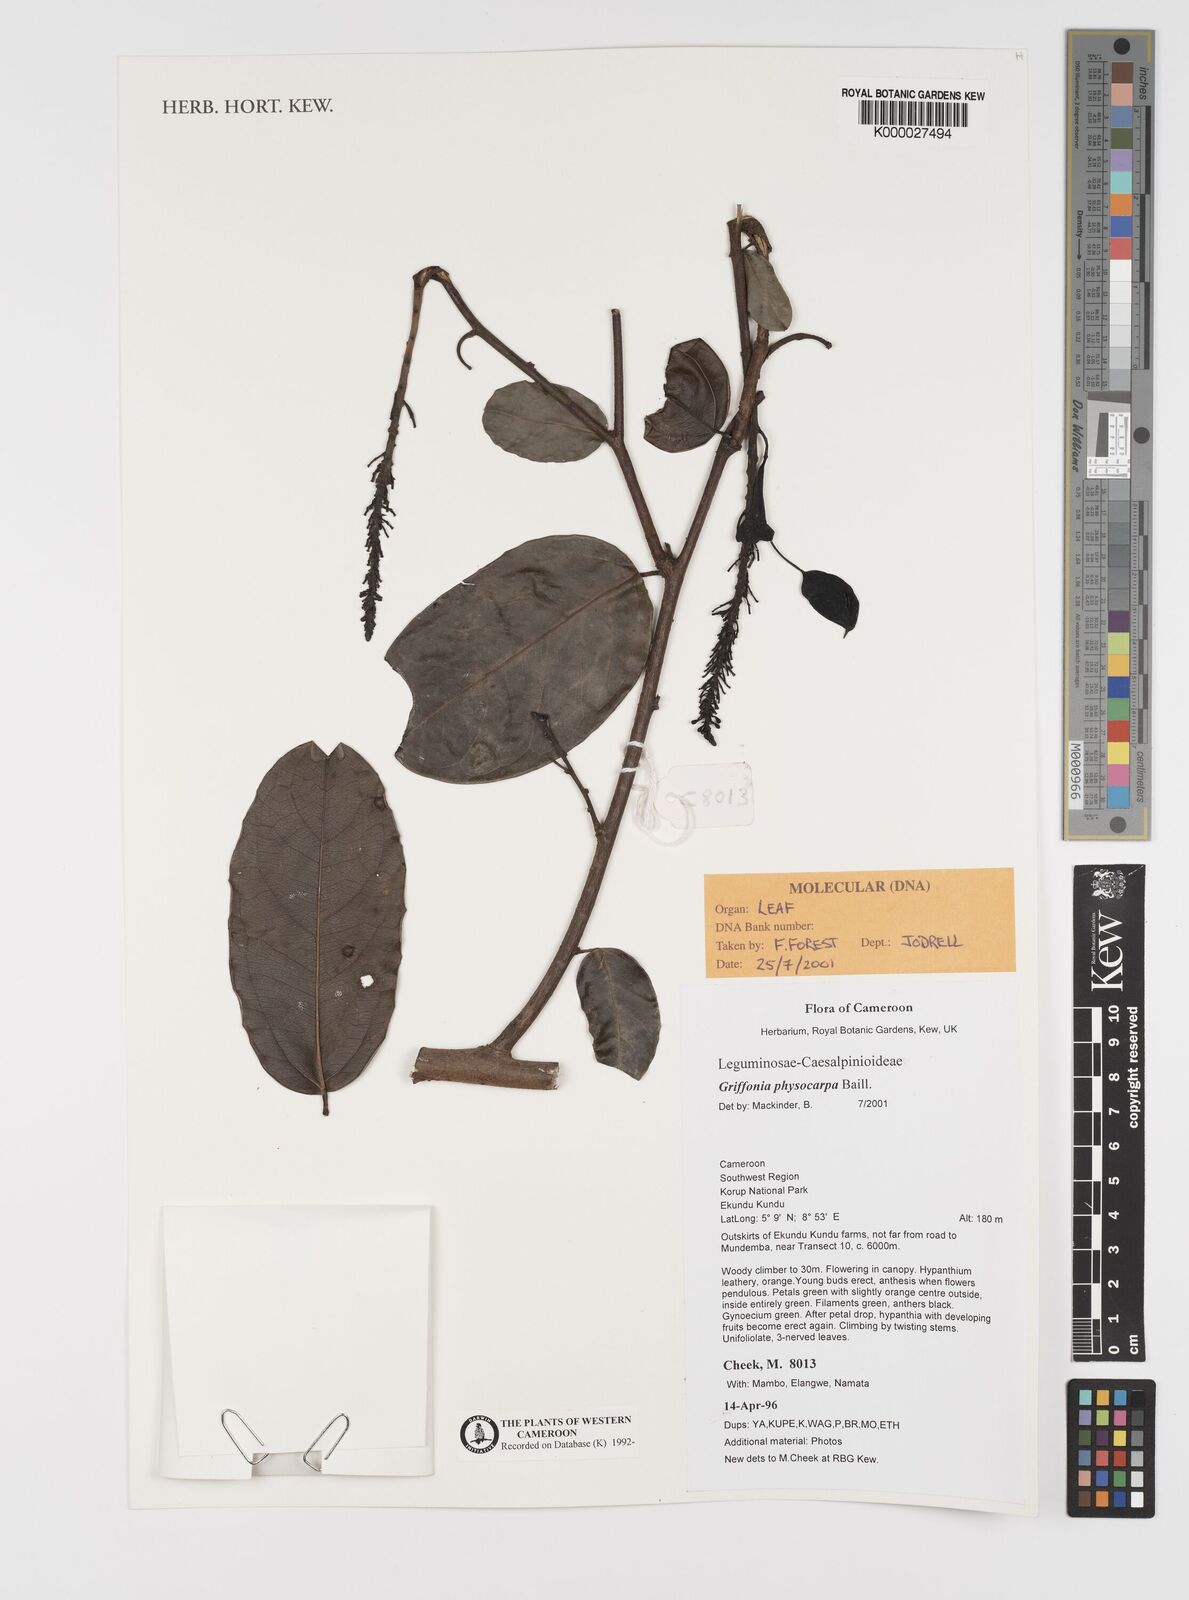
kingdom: Plantae
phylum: Tracheophyta
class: Magnoliopsida
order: Fabales
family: Fabaceae
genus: Griffonia
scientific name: Griffonia physocarpa
